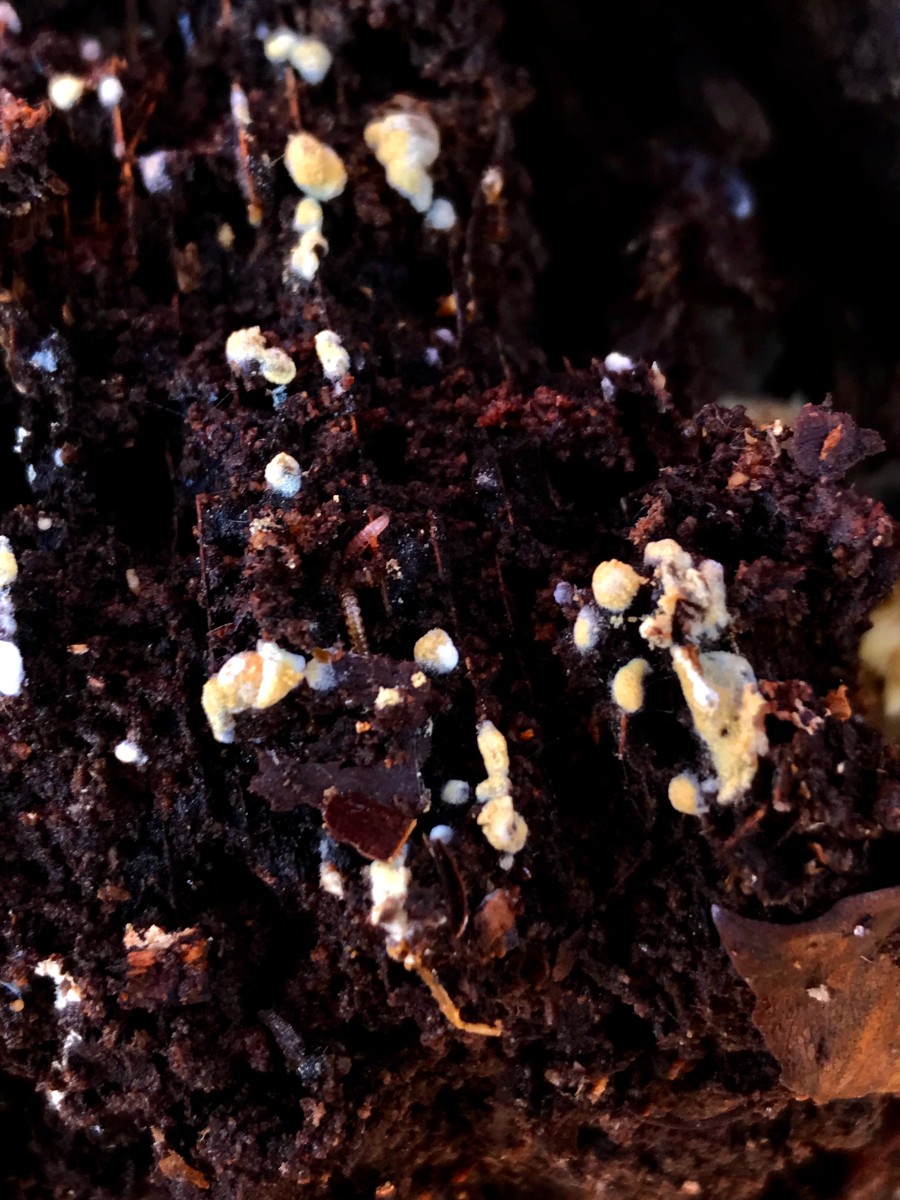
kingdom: Fungi
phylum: Basidiomycota
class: Agaricomycetes
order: Cantharellales
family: Botryobasidiaceae
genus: Botryobasidium
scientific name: Botryobasidium aureum
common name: gylden spindhinde
